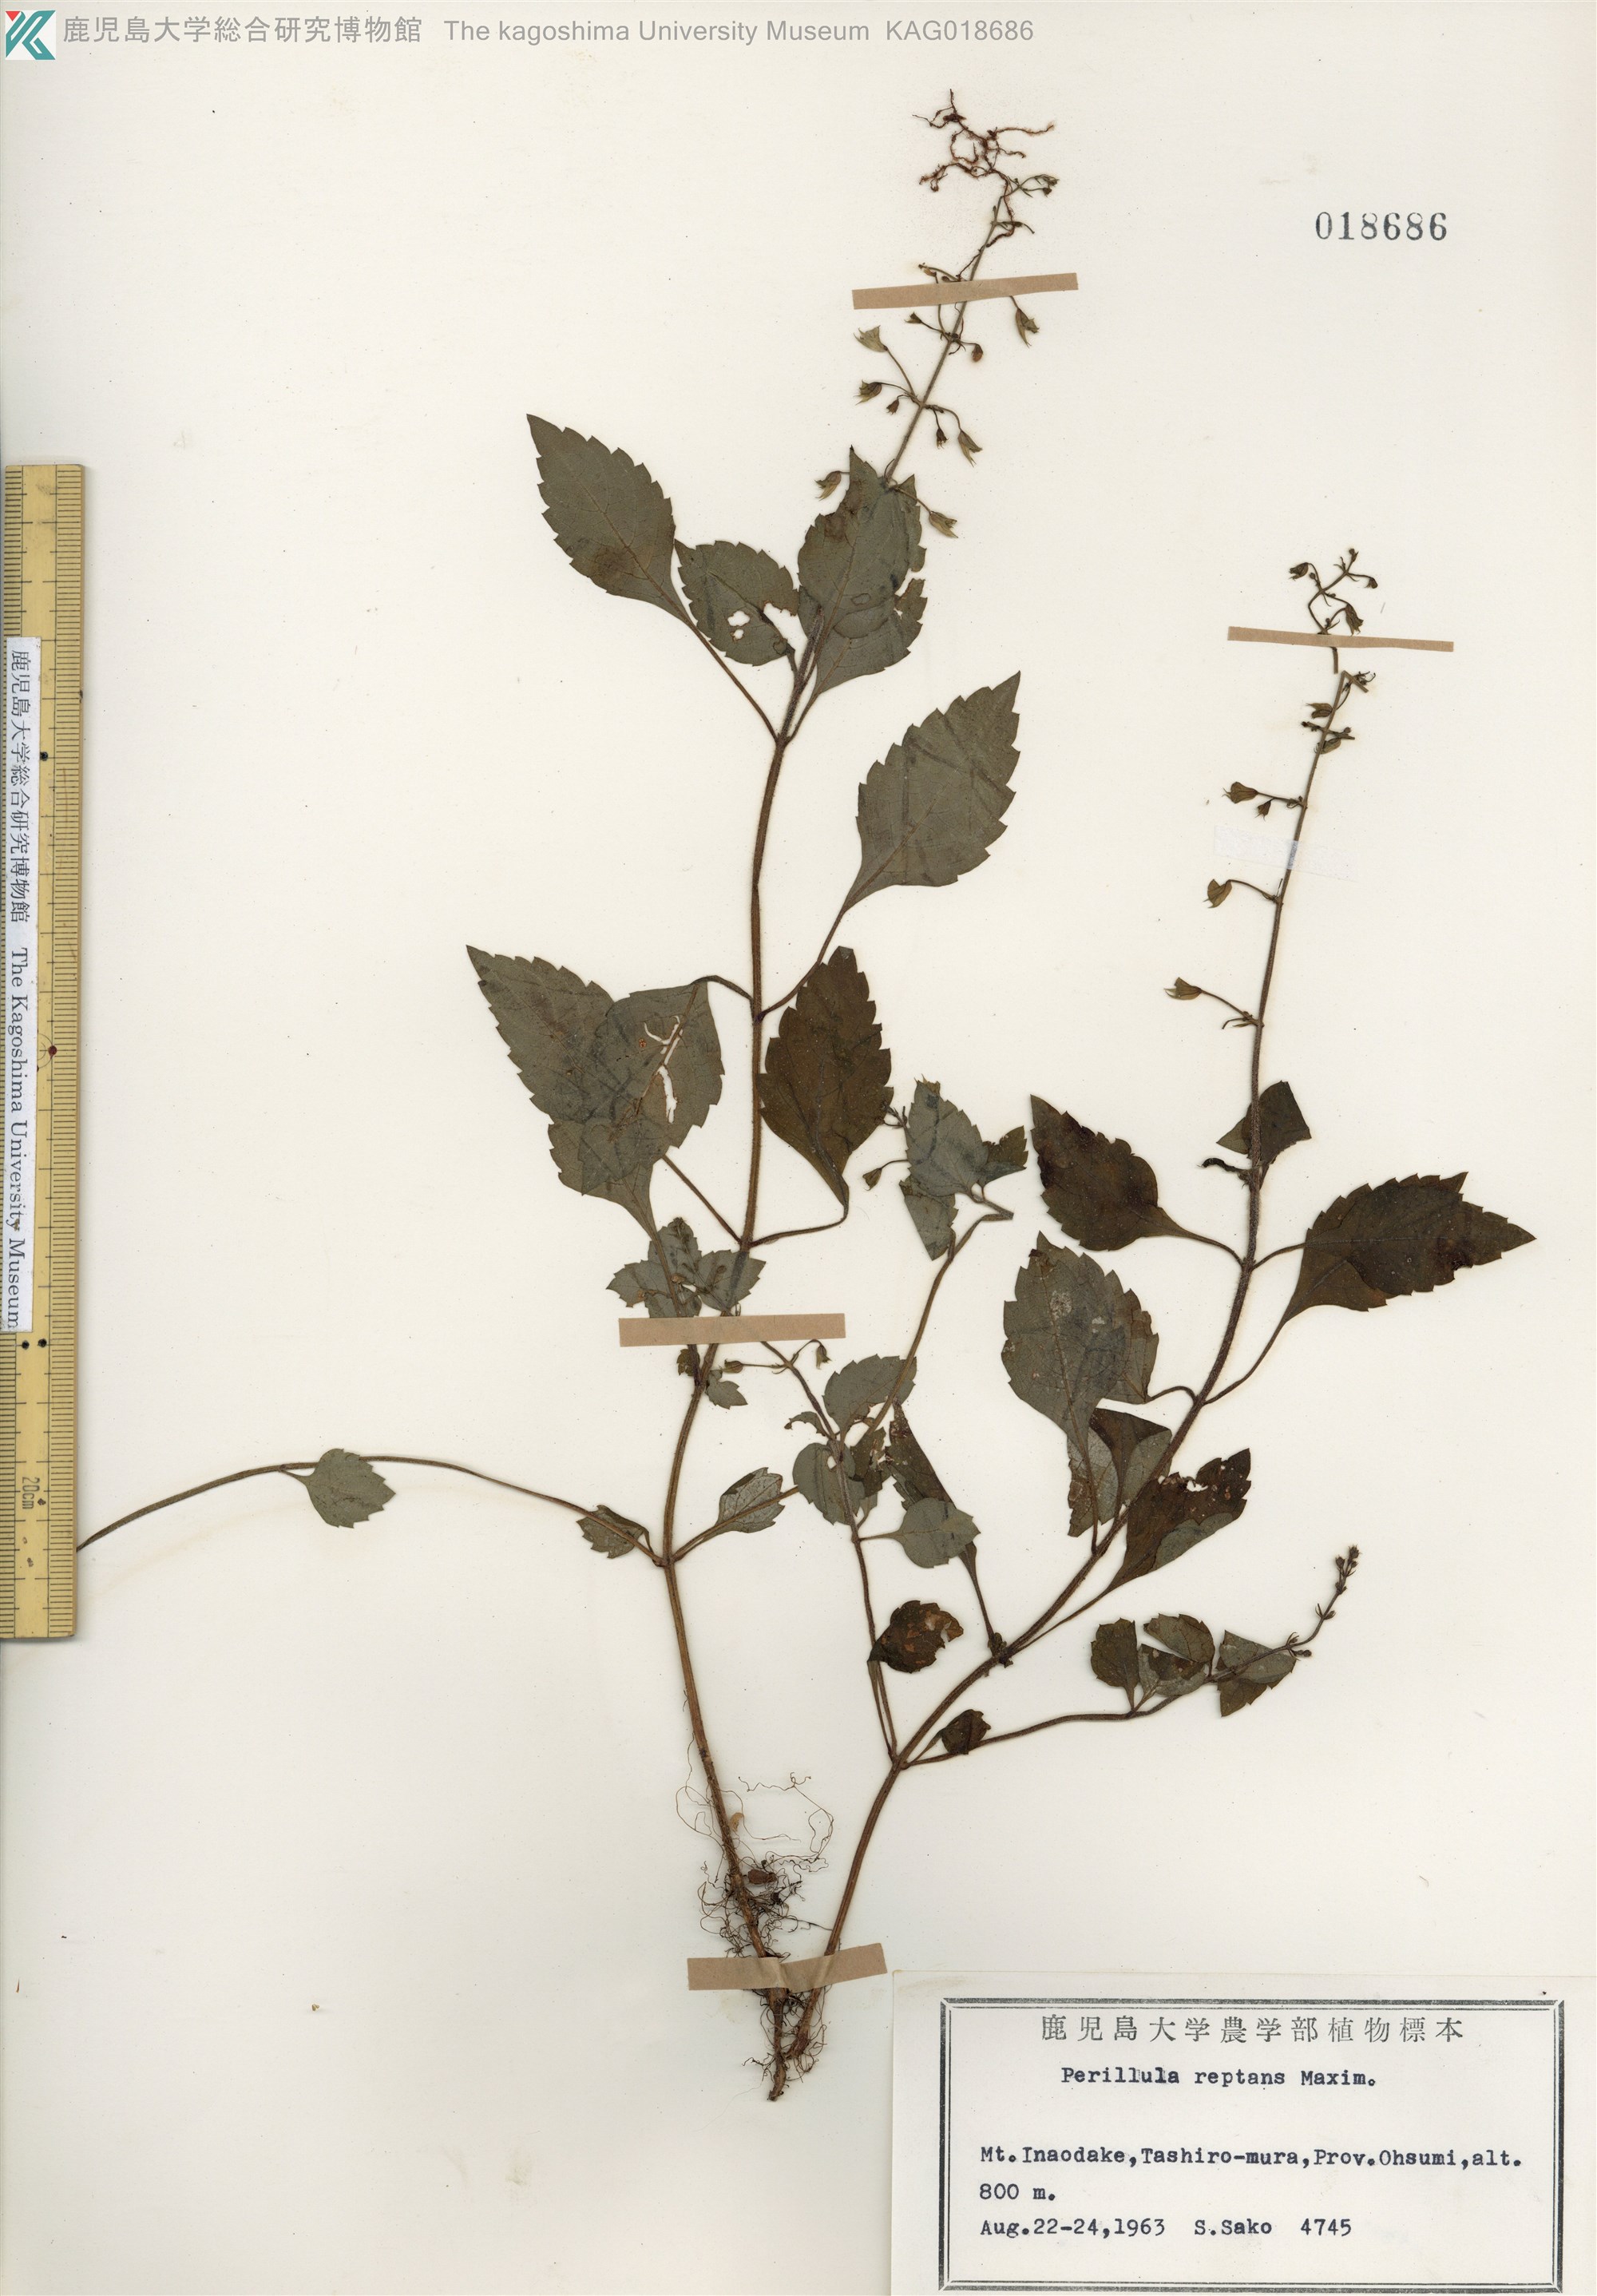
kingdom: Plantae
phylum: Tracheophyta
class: Magnoliopsida
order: Lamiales
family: Lamiaceae
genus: Perillula
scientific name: Perillula reptans
